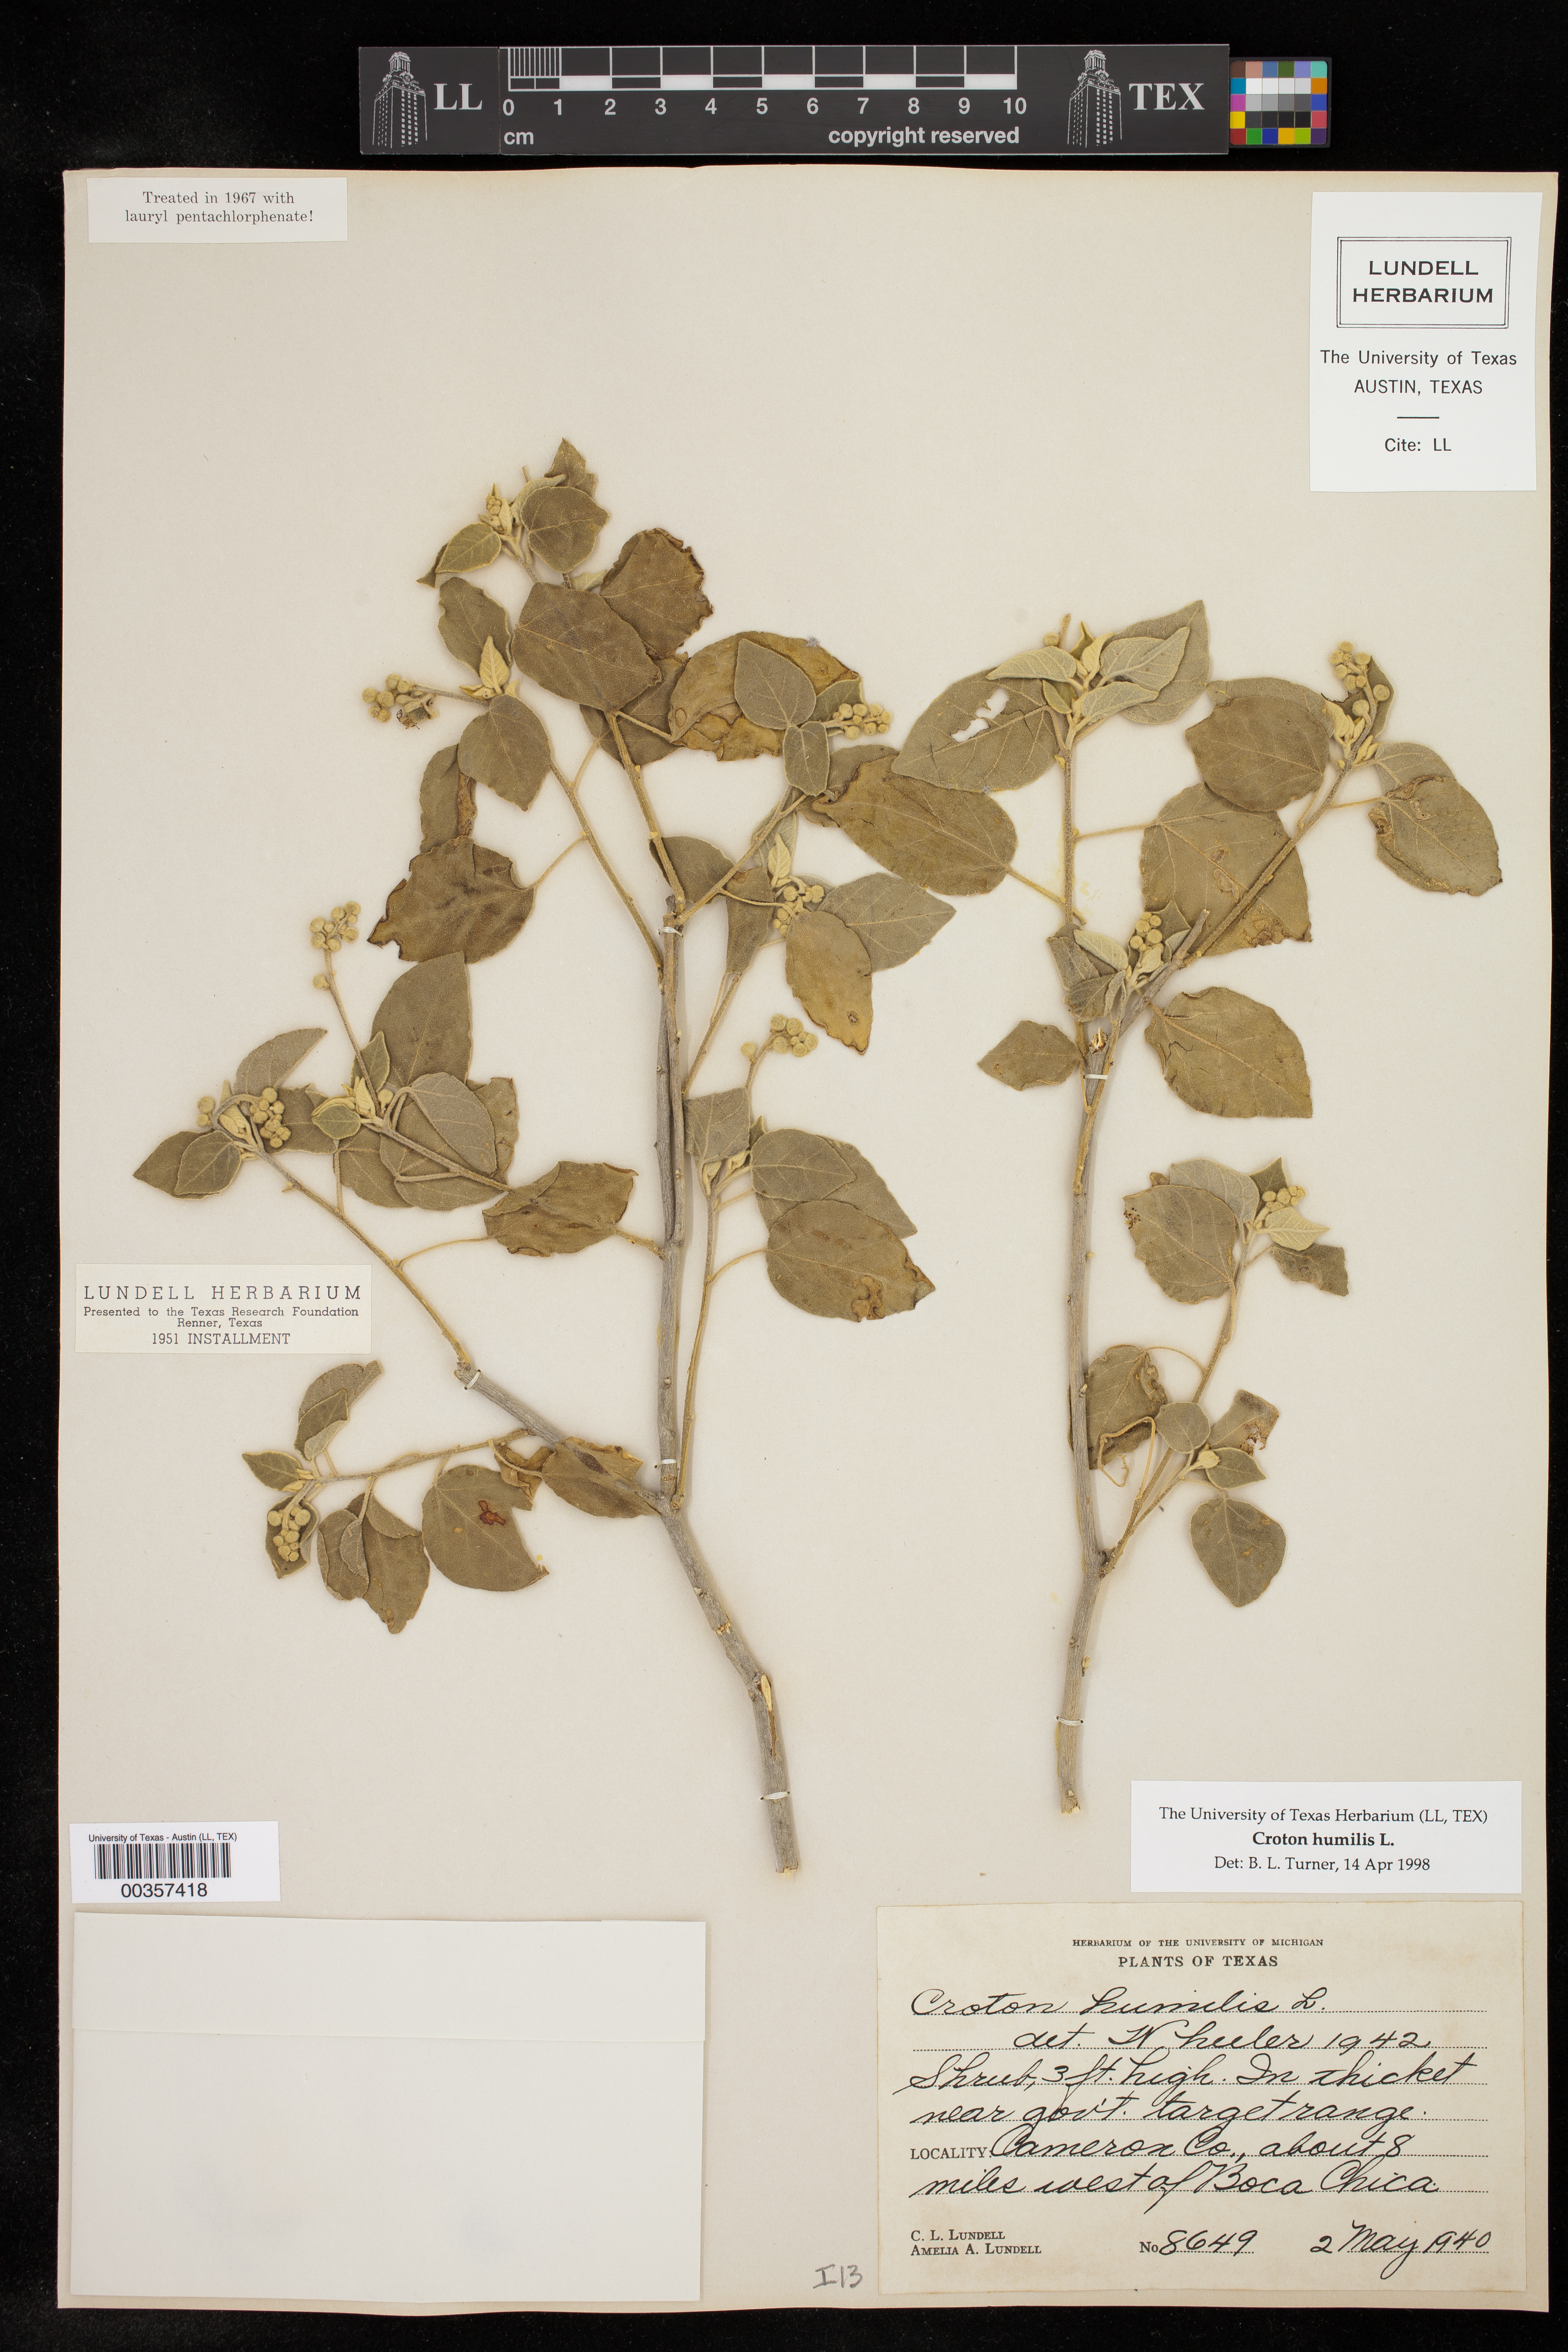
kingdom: Plantae
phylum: Tracheophyta
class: Magnoliopsida
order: Malpighiales
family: Euphorbiaceae
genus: Croton
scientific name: Croton humilis
